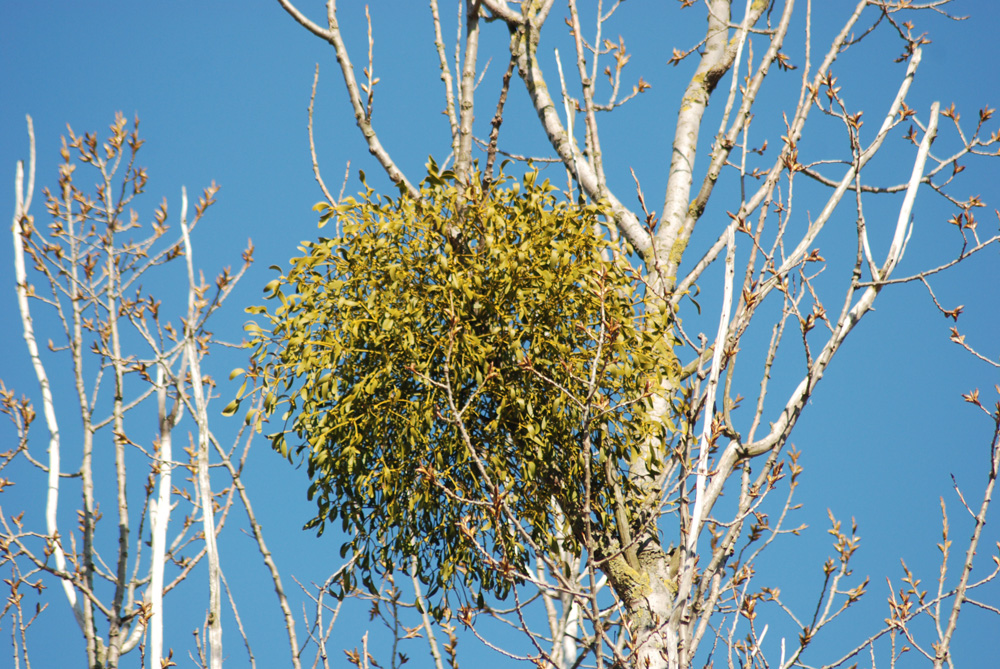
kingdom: Plantae
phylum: Tracheophyta
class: Magnoliopsida
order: Santalales
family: Viscaceae
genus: Viscum
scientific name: Viscum album
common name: Mistletoe
